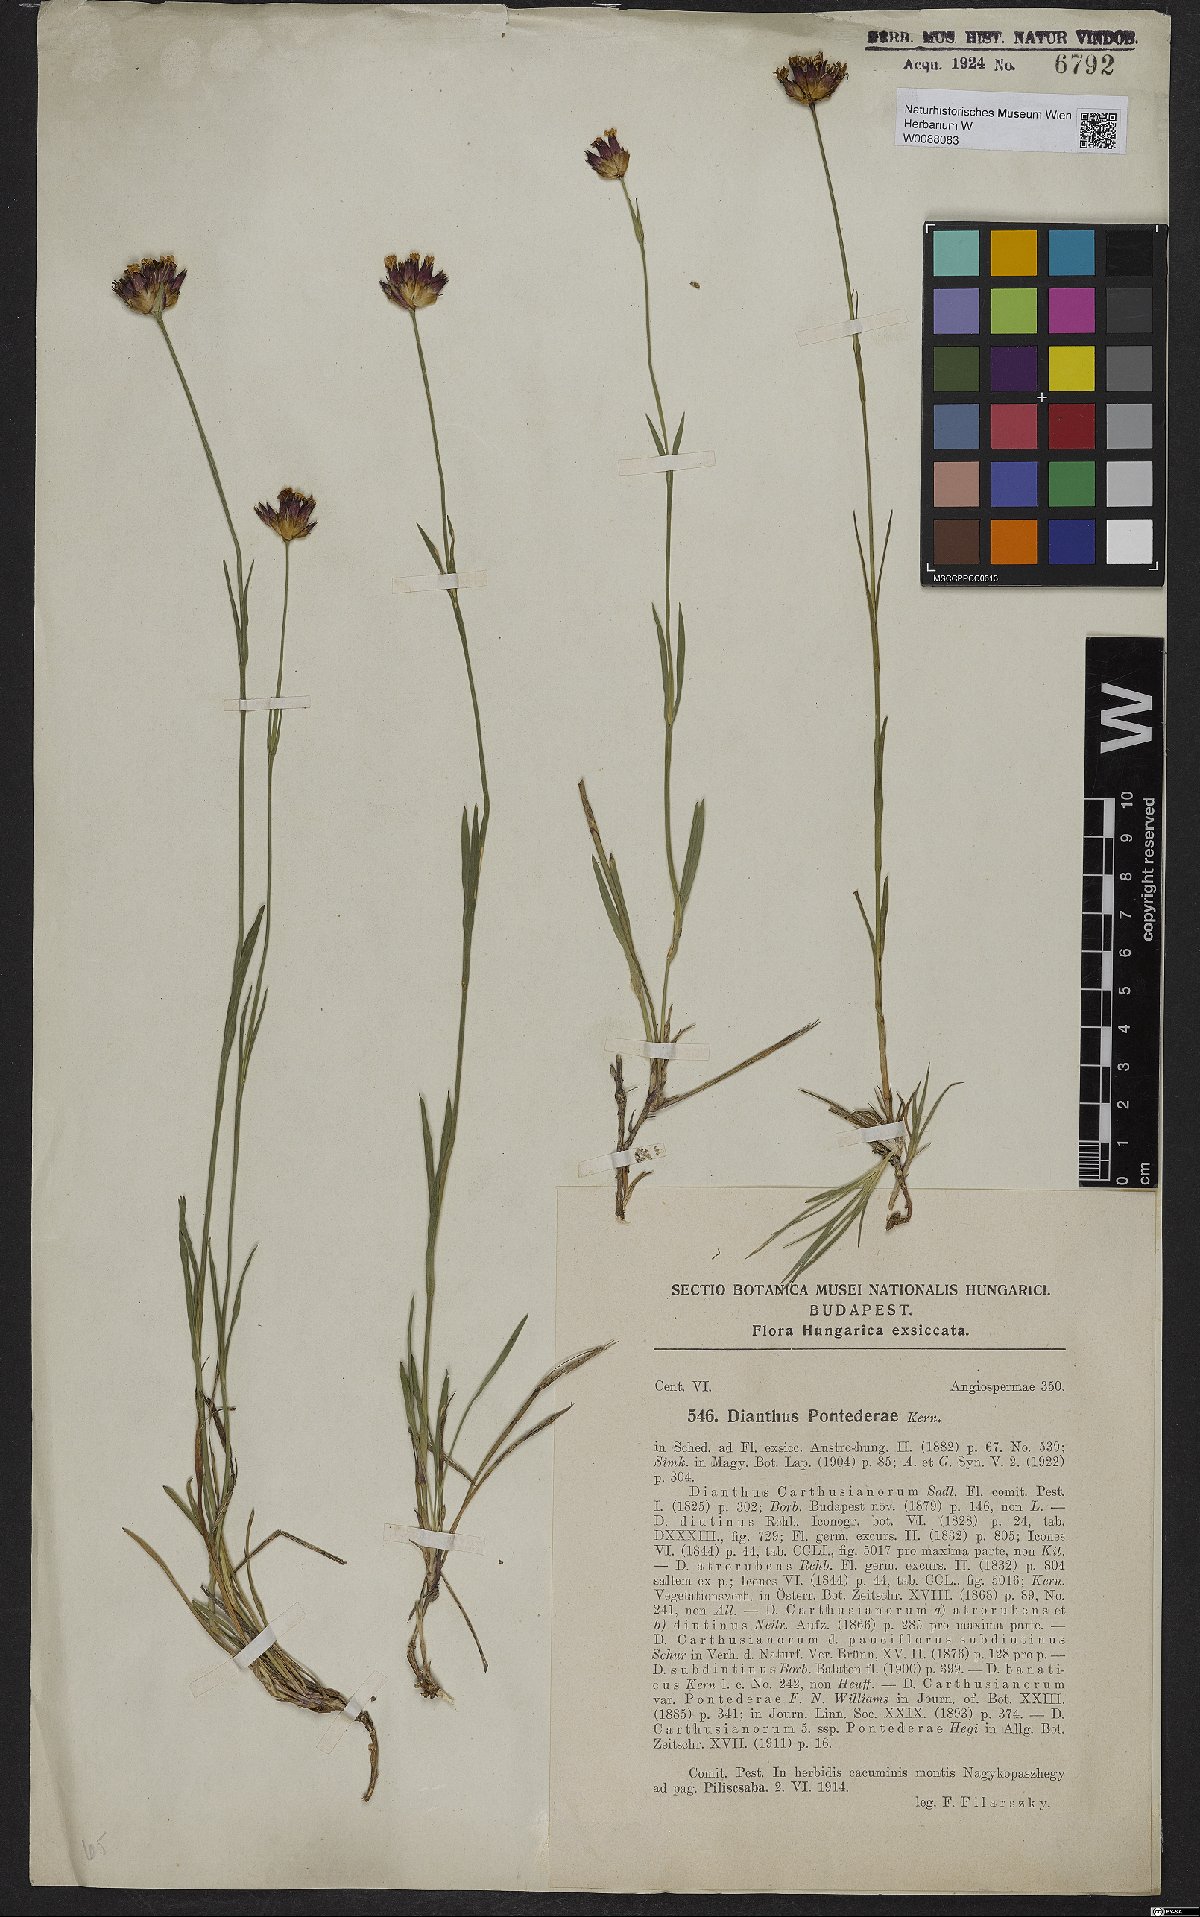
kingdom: Plantae
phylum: Tracheophyta
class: Magnoliopsida
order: Caryophyllales
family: Caryophyllaceae
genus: Dianthus
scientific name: Dianthus pontederae
